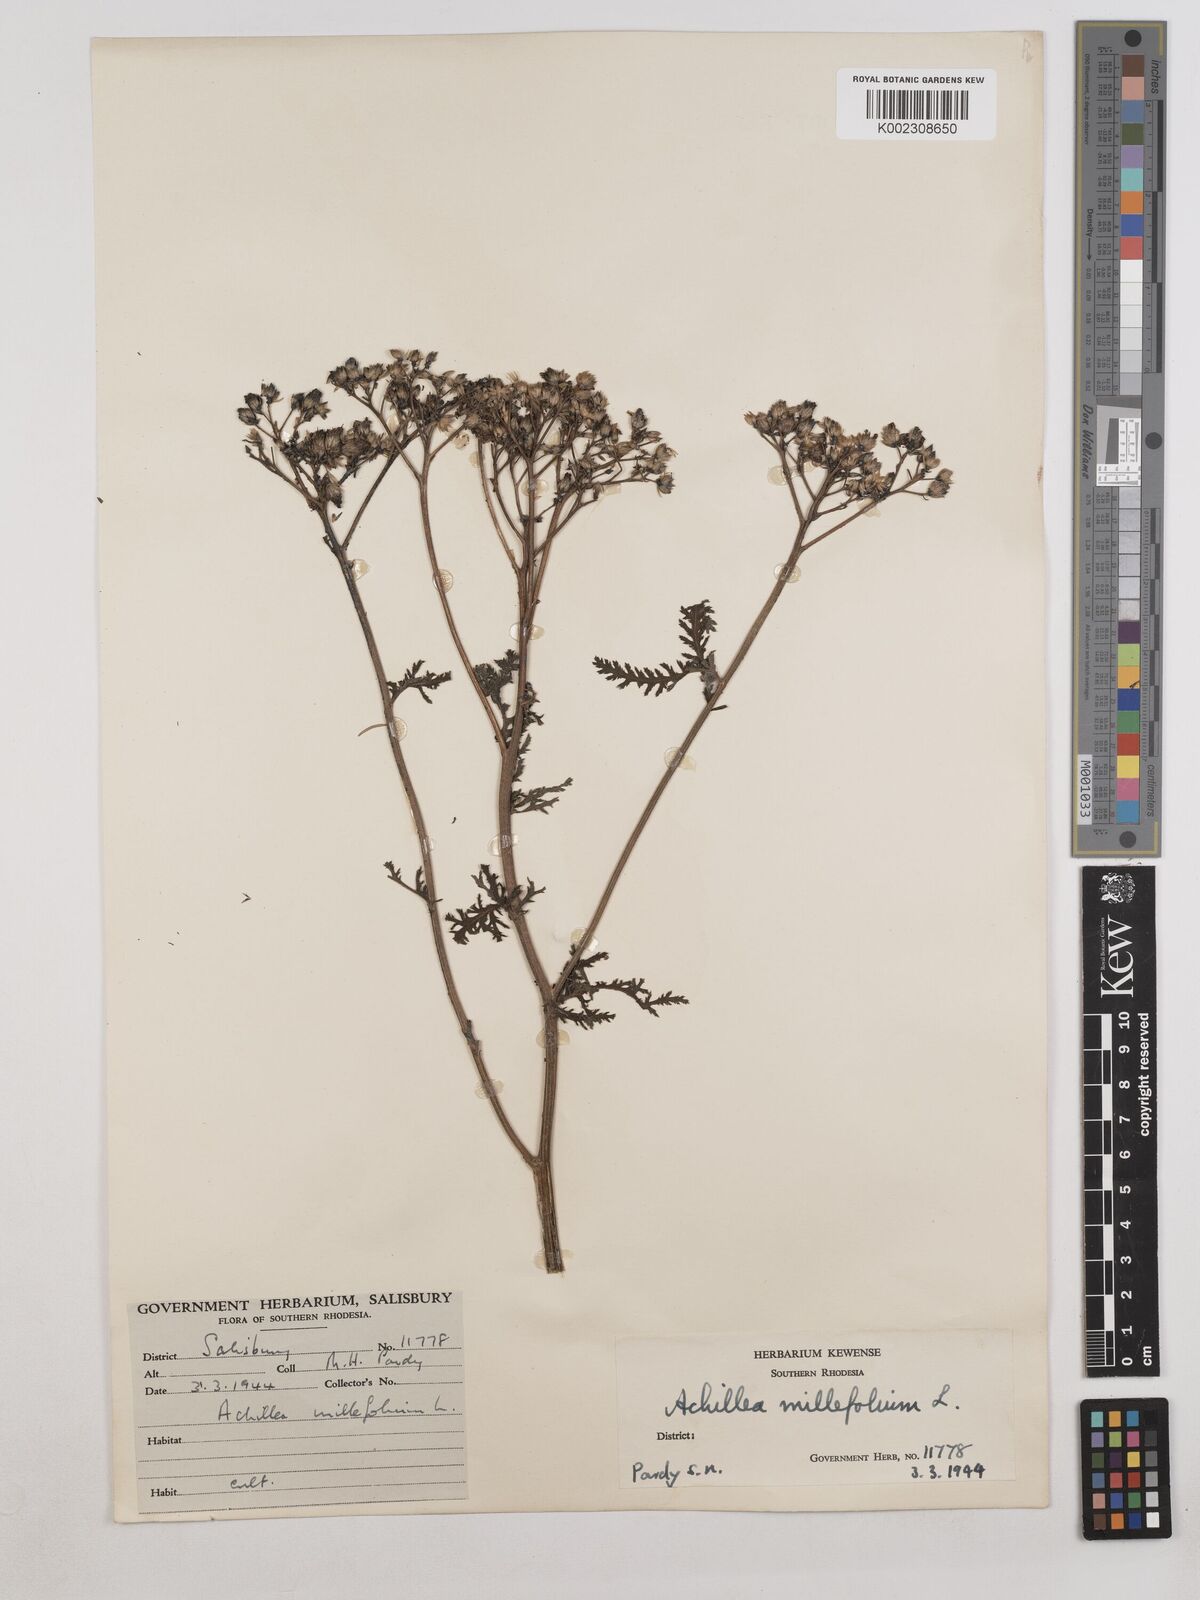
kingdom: Plantae
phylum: Tracheophyta
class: Magnoliopsida
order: Asterales
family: Asteraceae
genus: Achillea
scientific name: Achillea millefolium
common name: Yarrow
